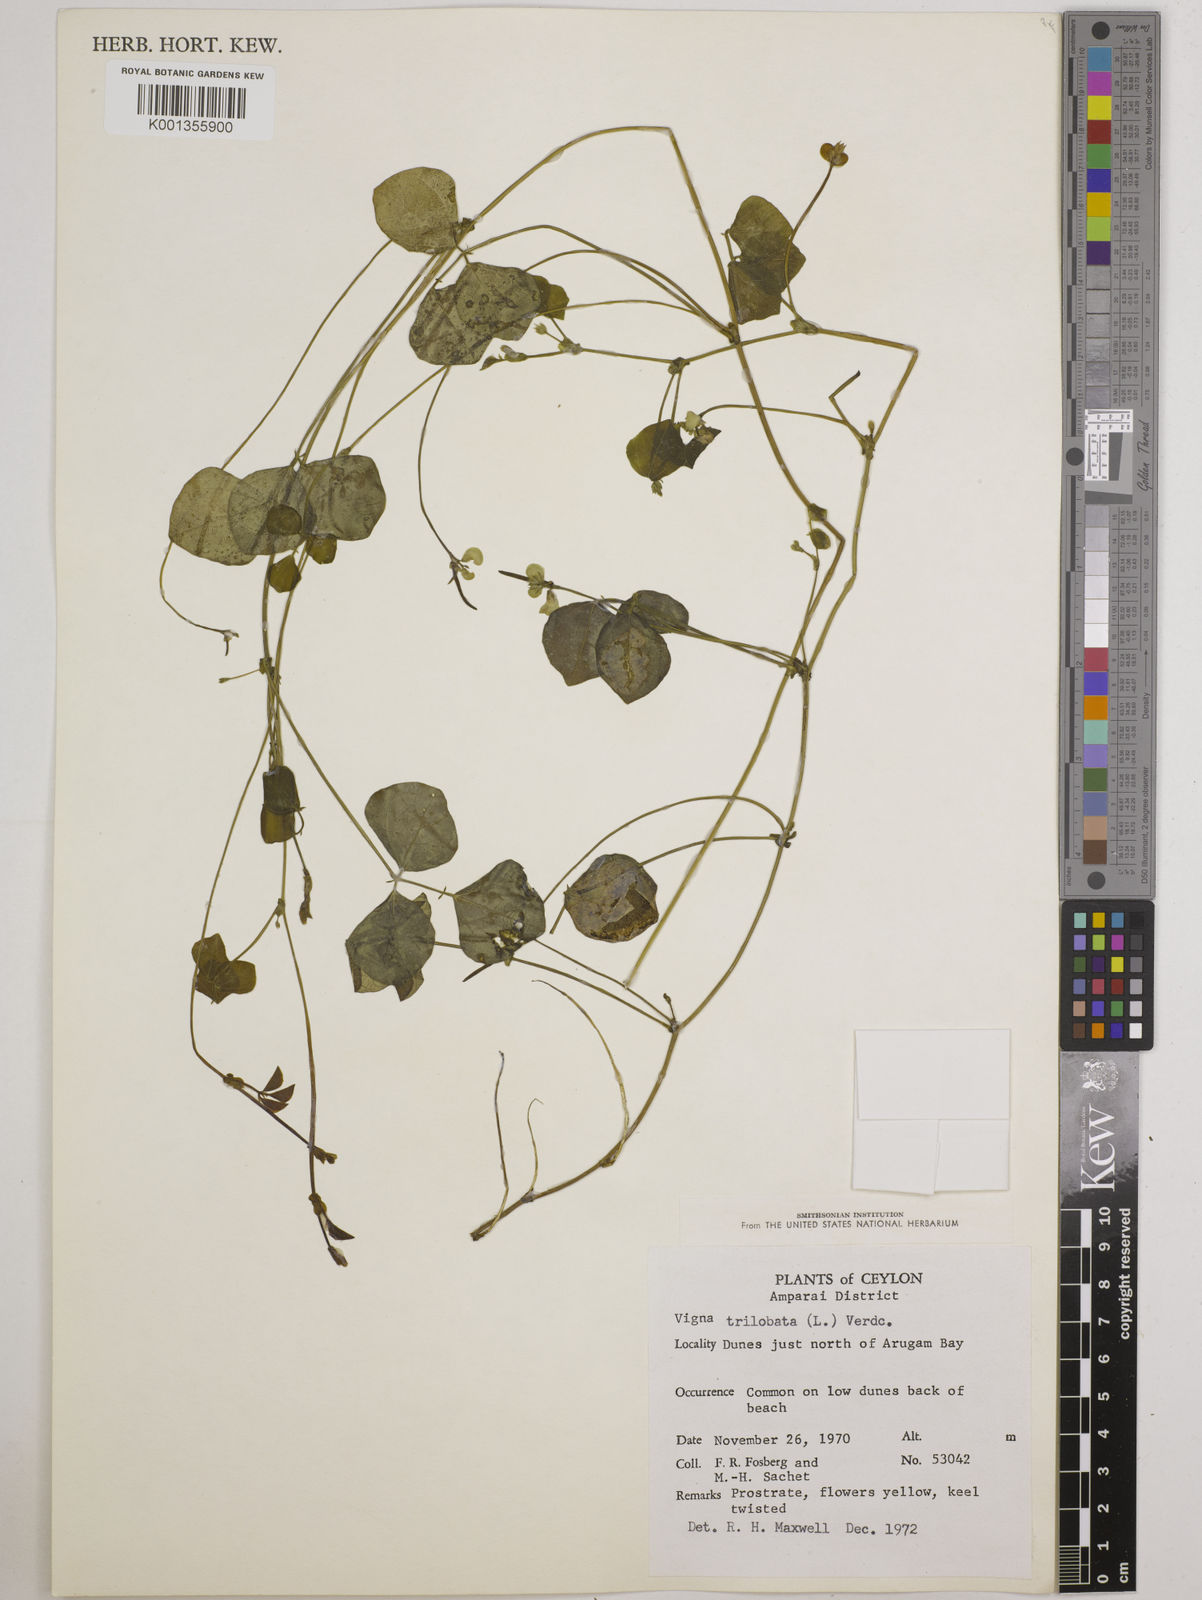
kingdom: Plantae
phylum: Tracheophyta
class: Magnoliopsida
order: Fabales
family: Fabaceae
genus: Vigna
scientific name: Vigna trilobata
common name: Jungli-bean
